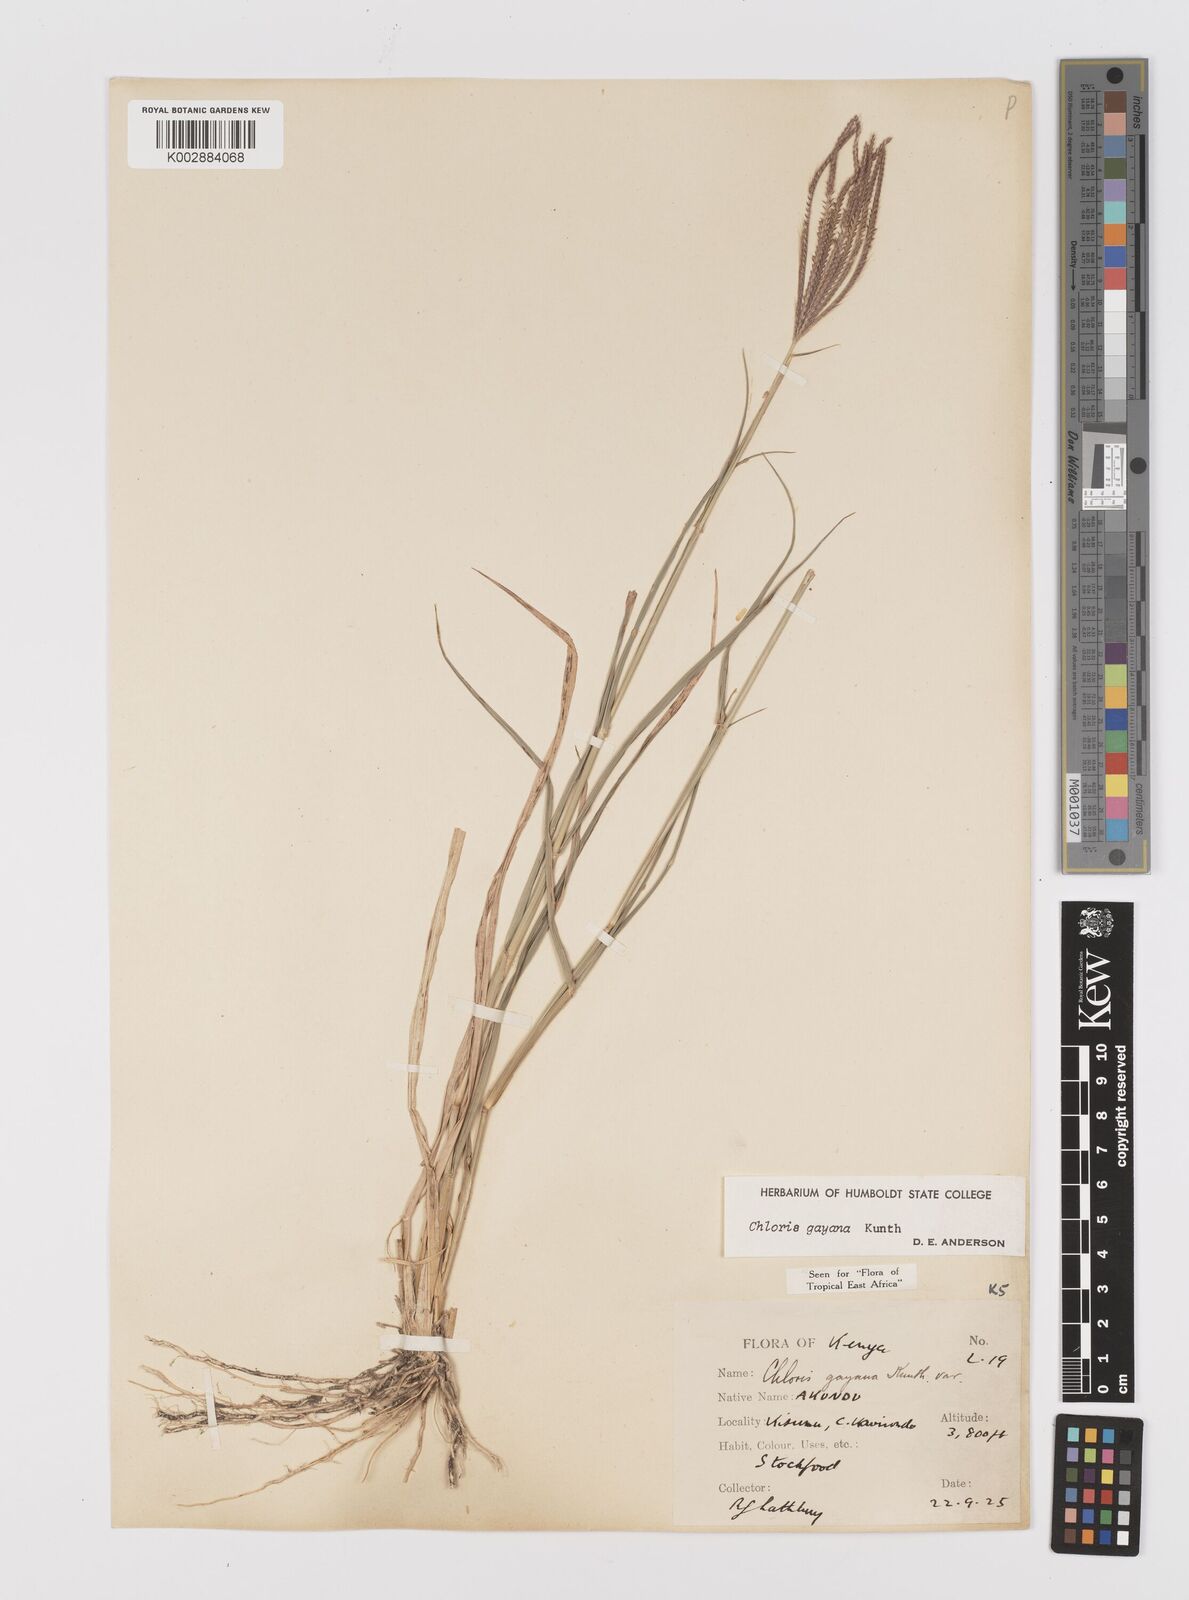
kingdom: Plantae
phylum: Tracheophyta
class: Liliopsida
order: Poales
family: Poaceae
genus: Chloris
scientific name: Chloris gayana
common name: Rhodes grass
